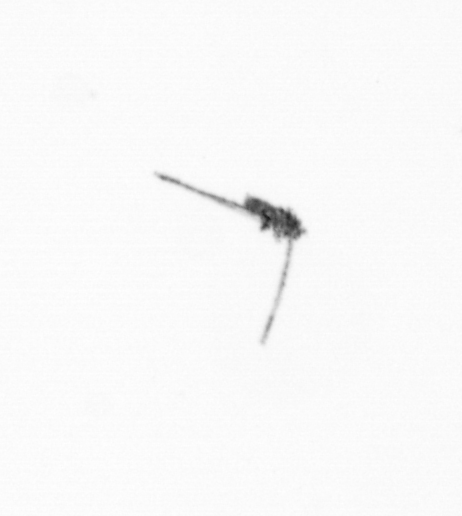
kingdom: Animalia
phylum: Arthropoda
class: Copepoda
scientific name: Copepoda
